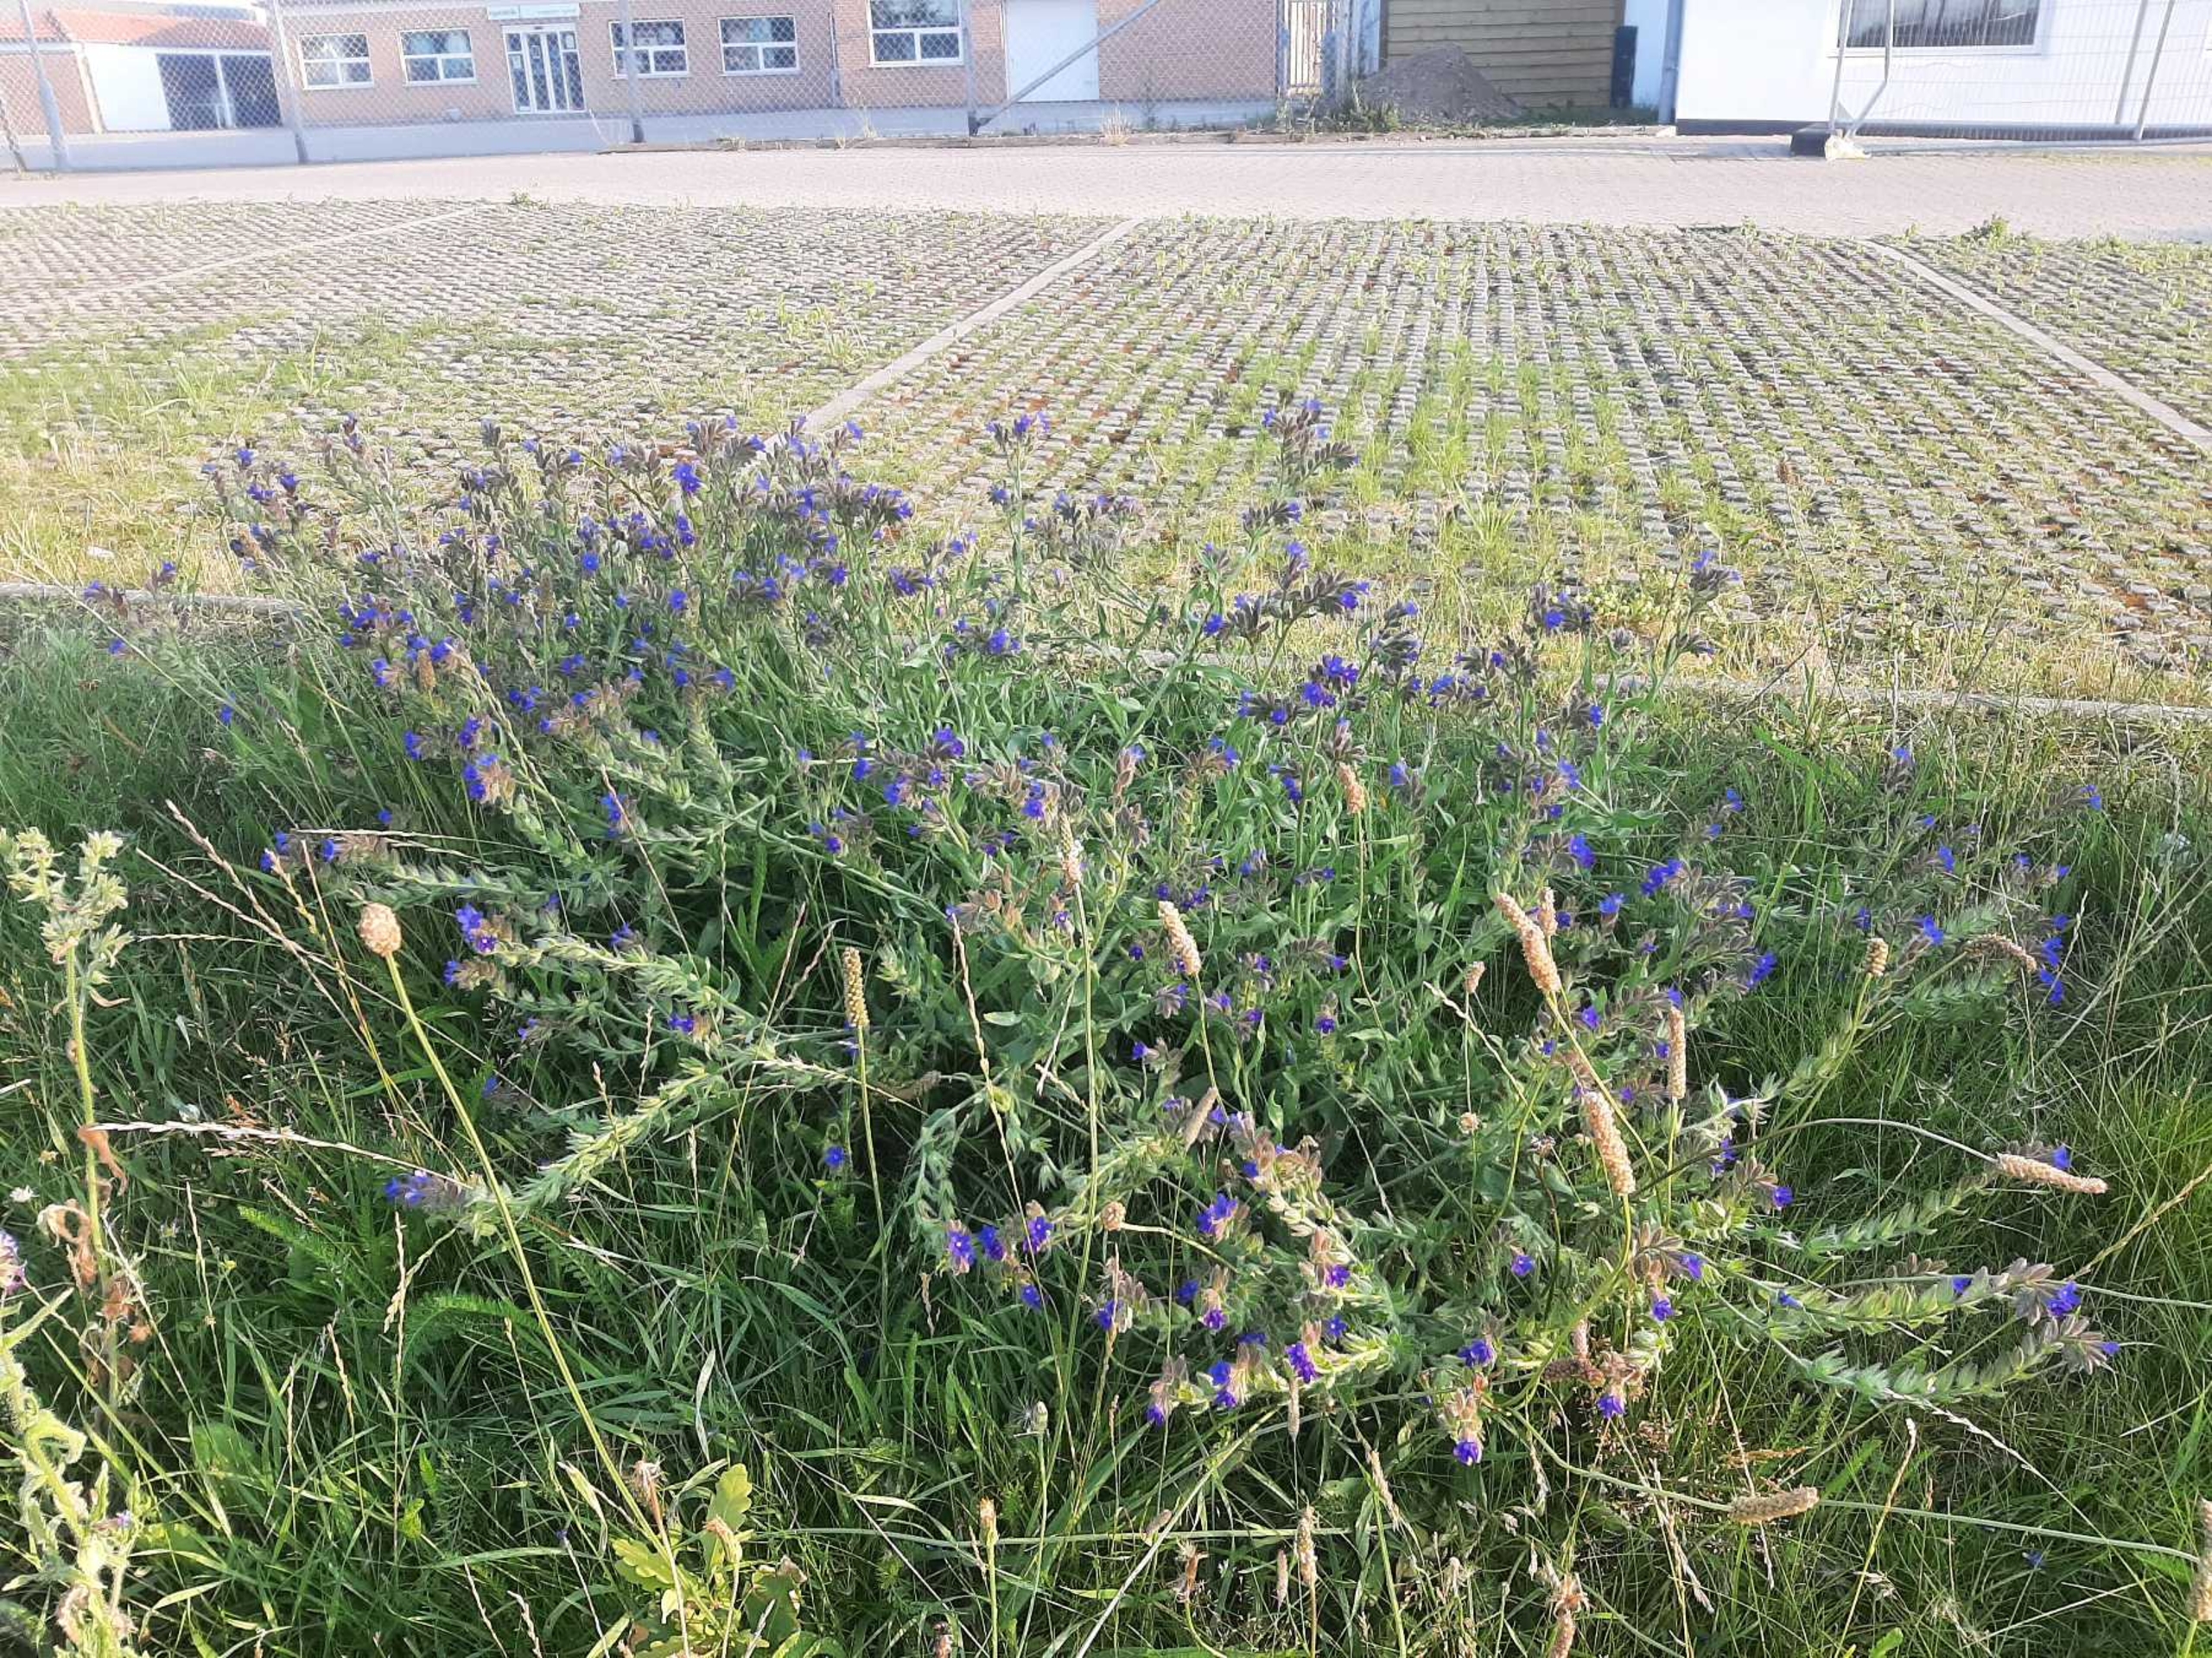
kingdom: Plantae
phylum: Tracheophyta
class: Magnoliopsida
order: Boraginales
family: Boraginaceae
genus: Anchusa
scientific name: Anchusa officinalis
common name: Læge-oksetunge
